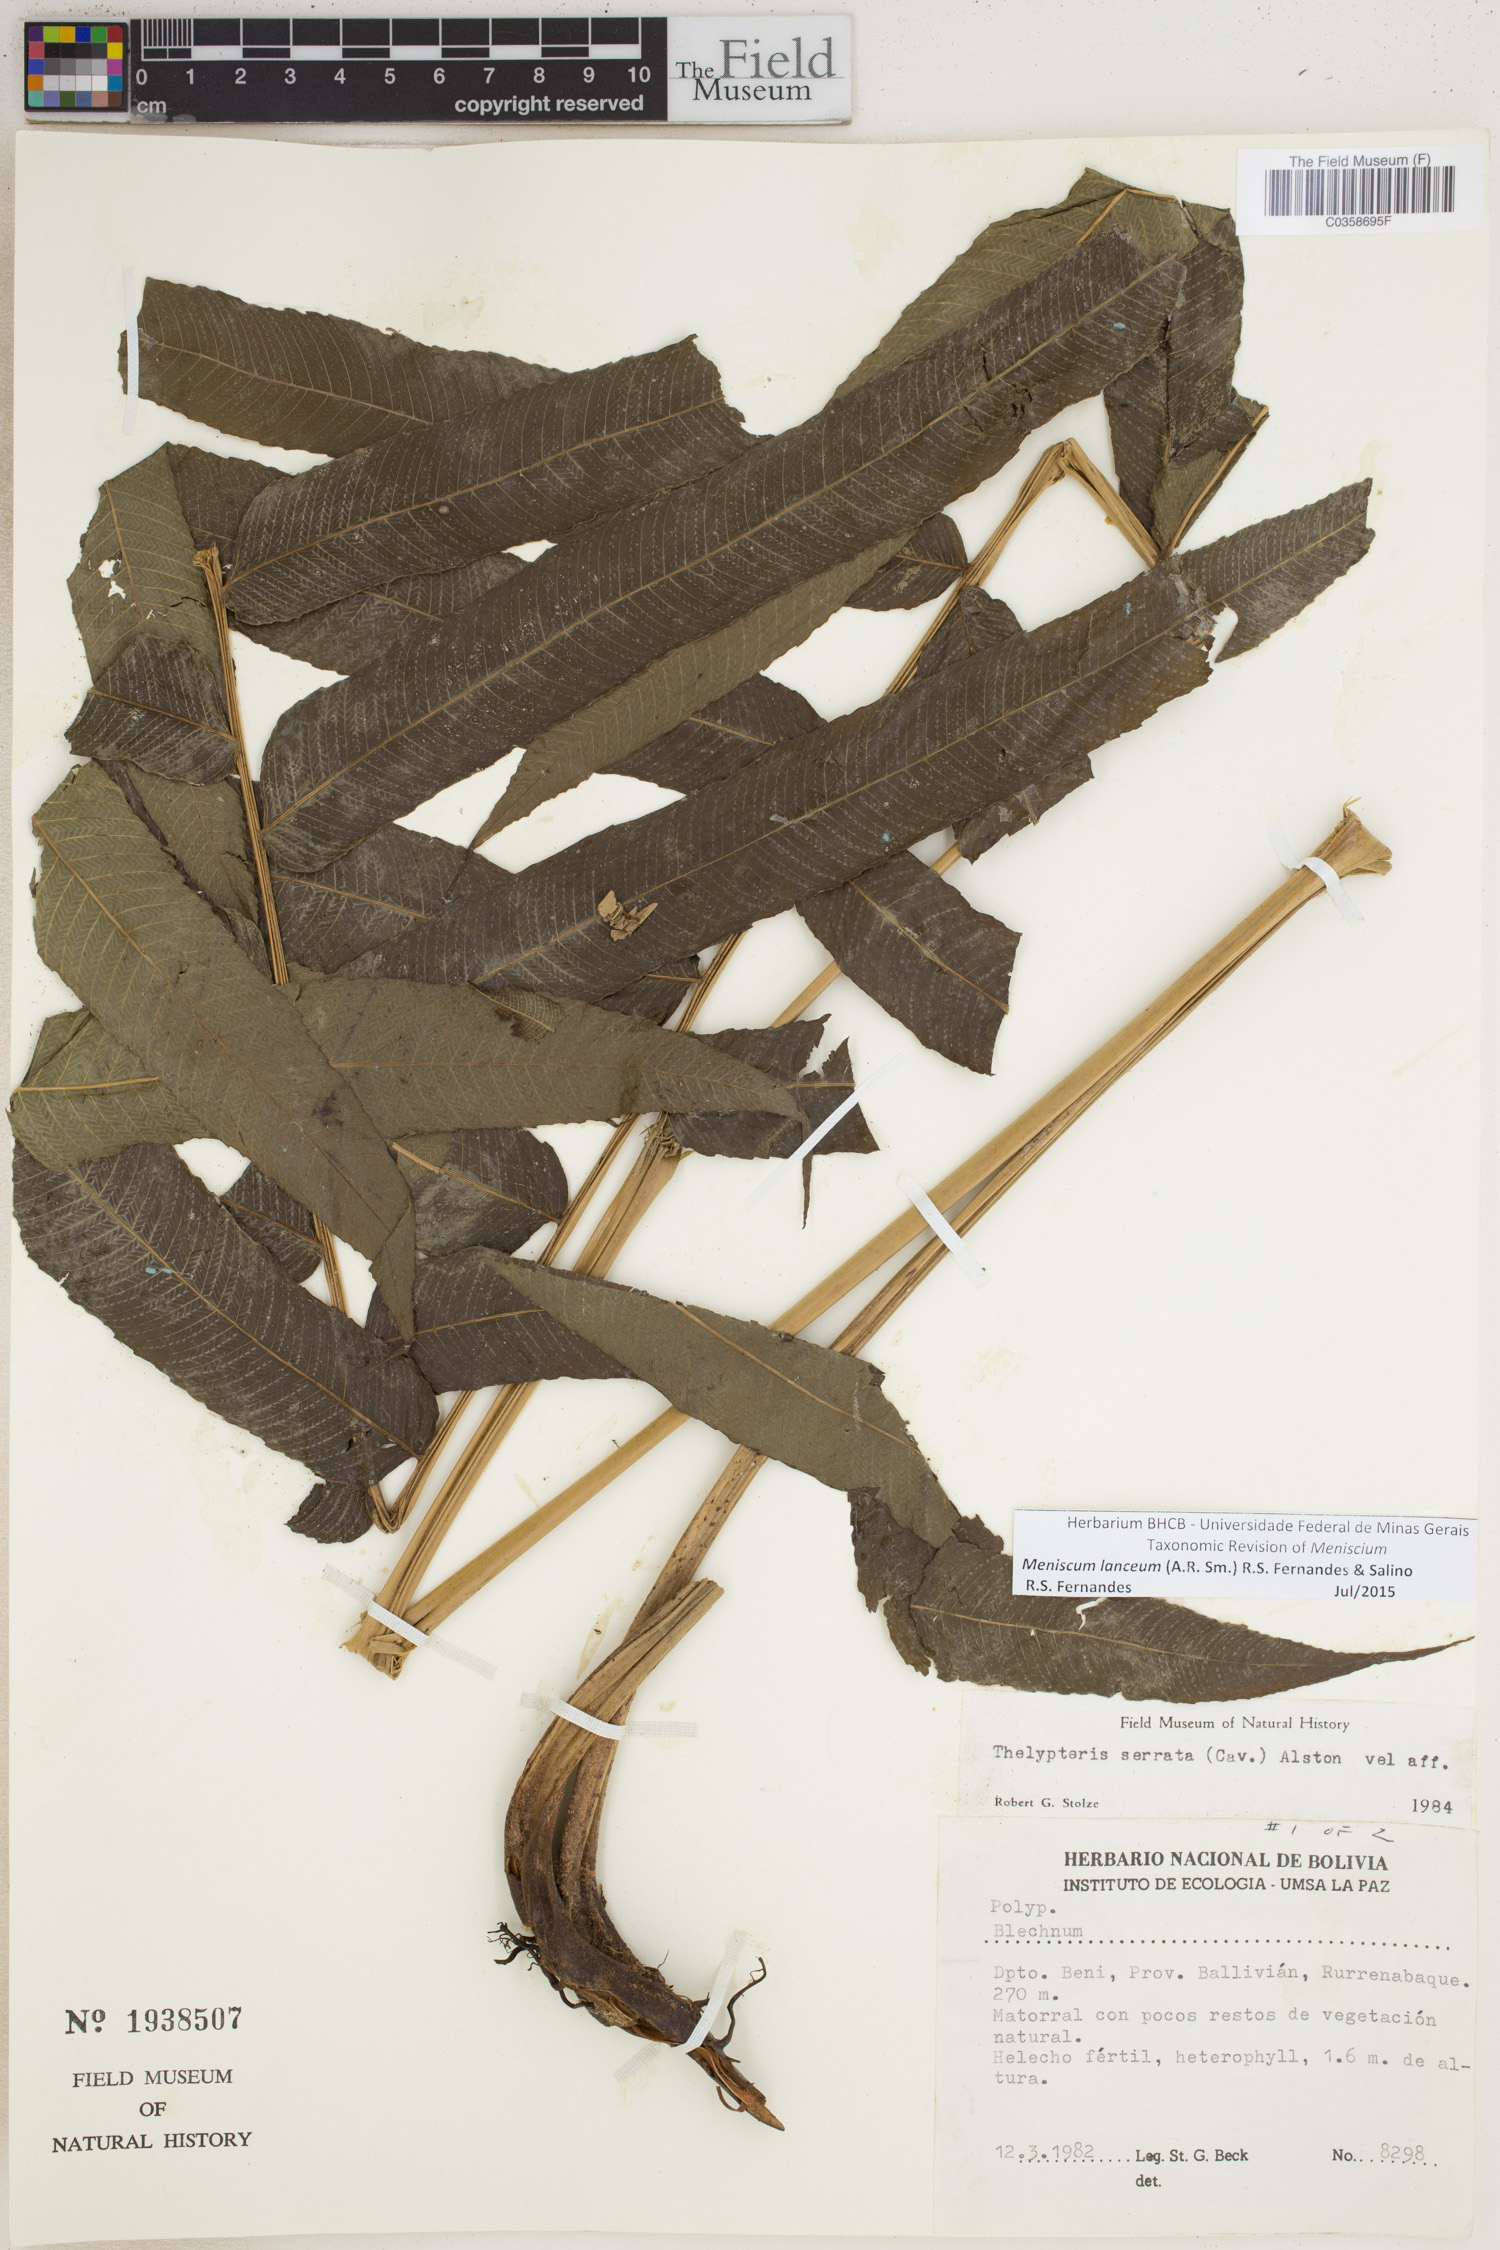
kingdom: Plantae
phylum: Tracheophyta
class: Polypodiopsida
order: Polypodiales
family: Thelypteridaceae
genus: Meniscium
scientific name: Meniscium lanceum
